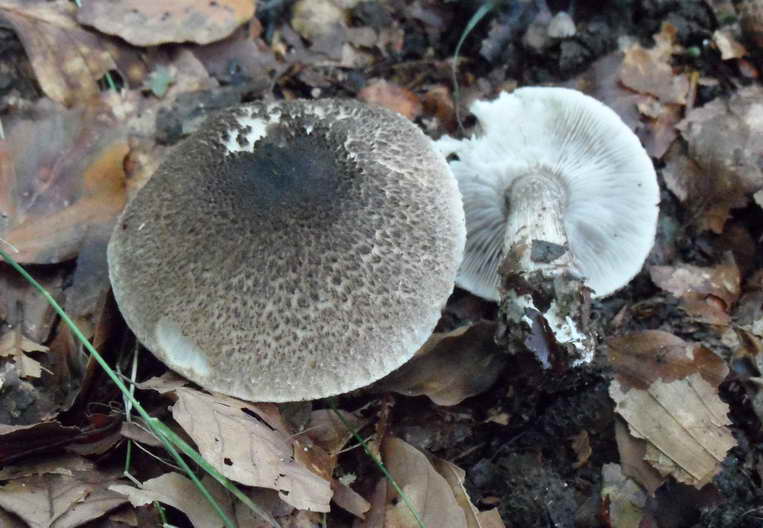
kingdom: Fungi
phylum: Basidiomycota
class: Agaricomycetes
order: Agaricales
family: Tricholomataceae
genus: Tricholoma
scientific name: Tricholoma scalpturatum
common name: gulplettet ridderhat
